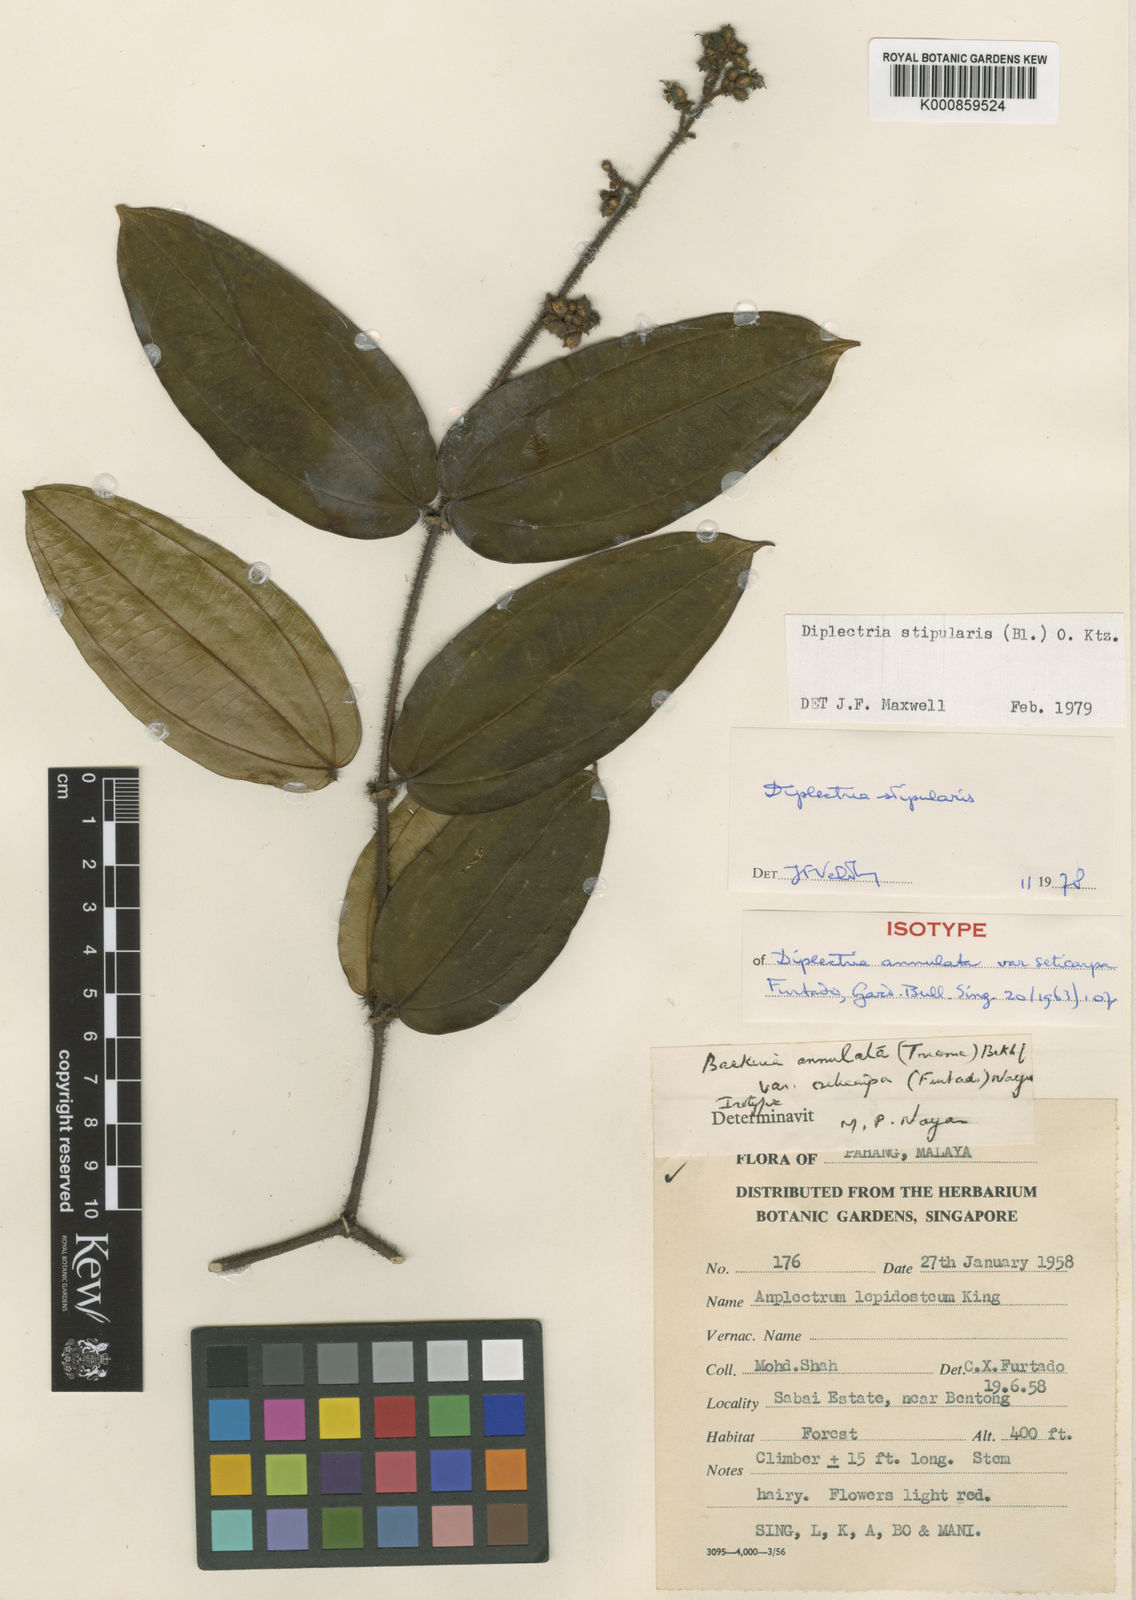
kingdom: Plantae
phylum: Tracheophyta
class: Magnoliopsida
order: Myrtales
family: Melastomataceae
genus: Diplectria
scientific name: Diplectria stipularis
